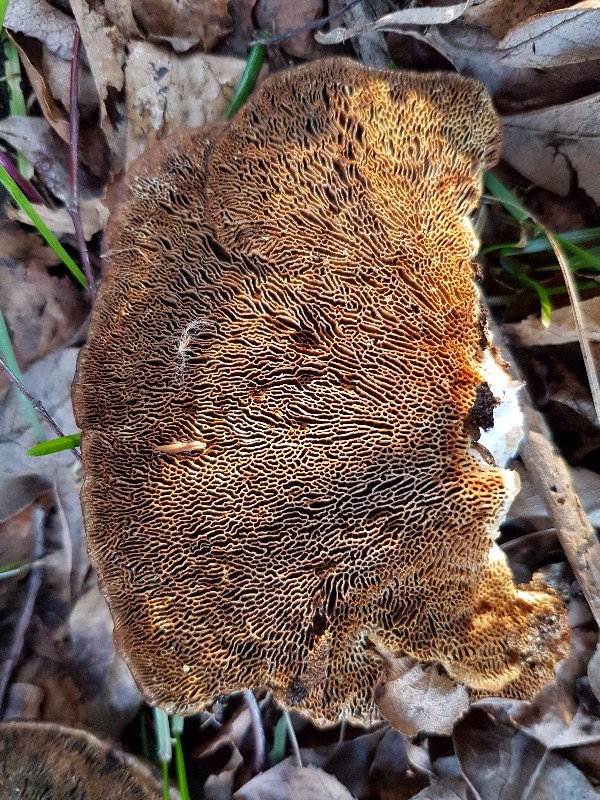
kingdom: Fungi
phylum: Basidiomycota
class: Agaricomycetes
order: Polyporales
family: Polyporaceae
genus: Daedaleopsis
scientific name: Daedaleopsis confragosa
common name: rødmende læderporesvamp
